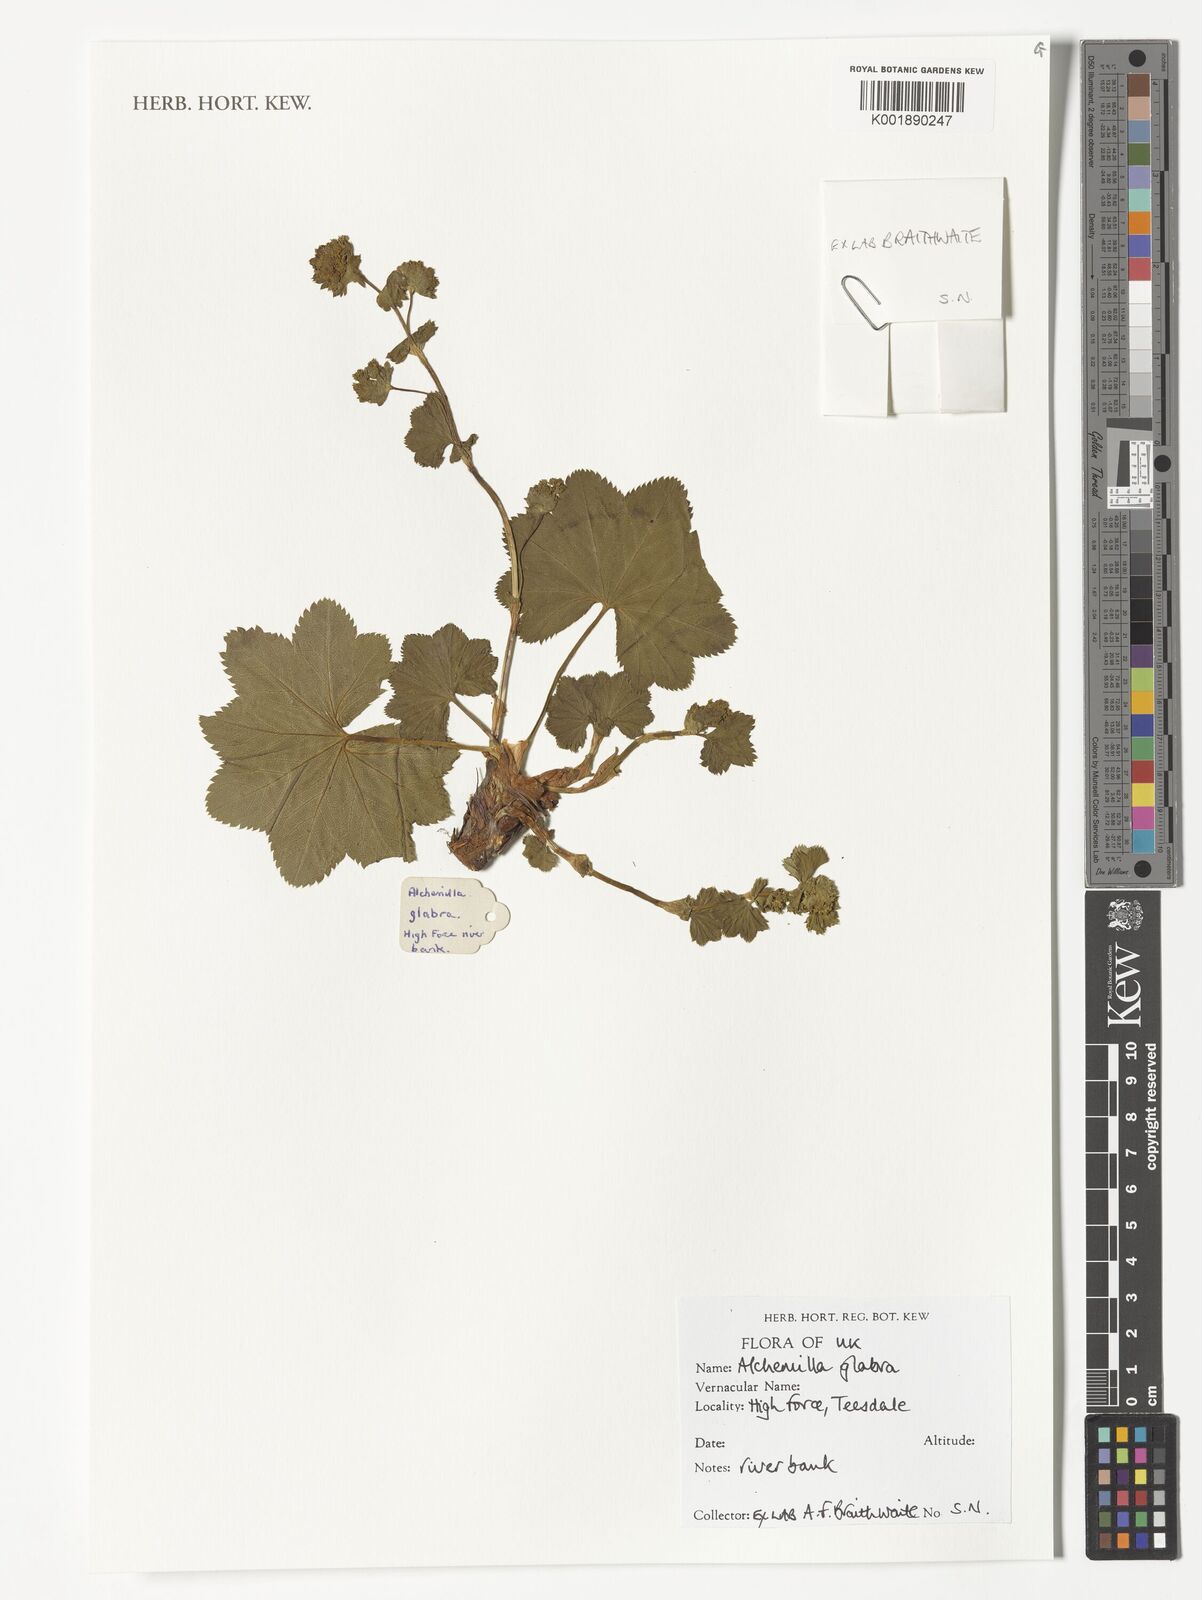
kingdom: Plantae
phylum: Tracheophyta
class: Magnoliopsida
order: Rosales
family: Rosaceae
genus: Alchemilla
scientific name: Alchemilla glabra
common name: Smooth lady's-mantle
